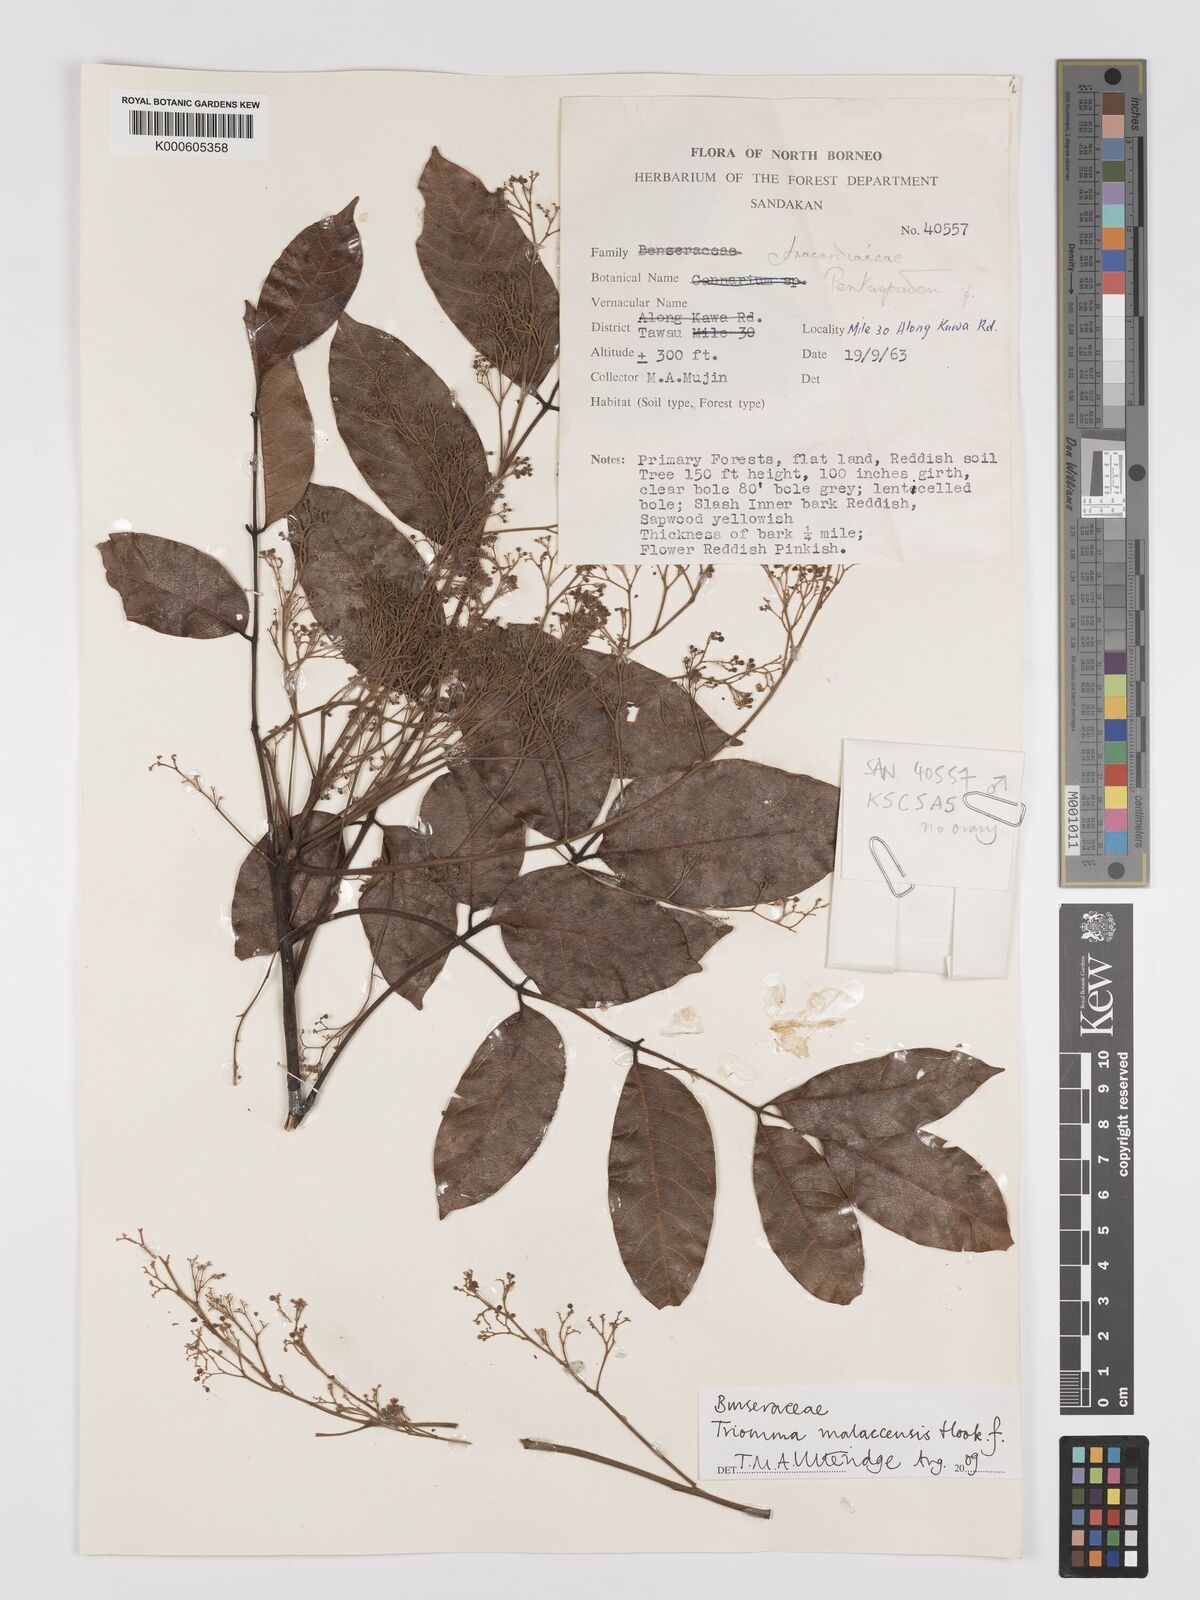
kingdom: Plantae
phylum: Tracheophyta
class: Magnoliopsida
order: Sapindales
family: Burseraceae
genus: Triomma
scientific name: Triomma malaccensis
